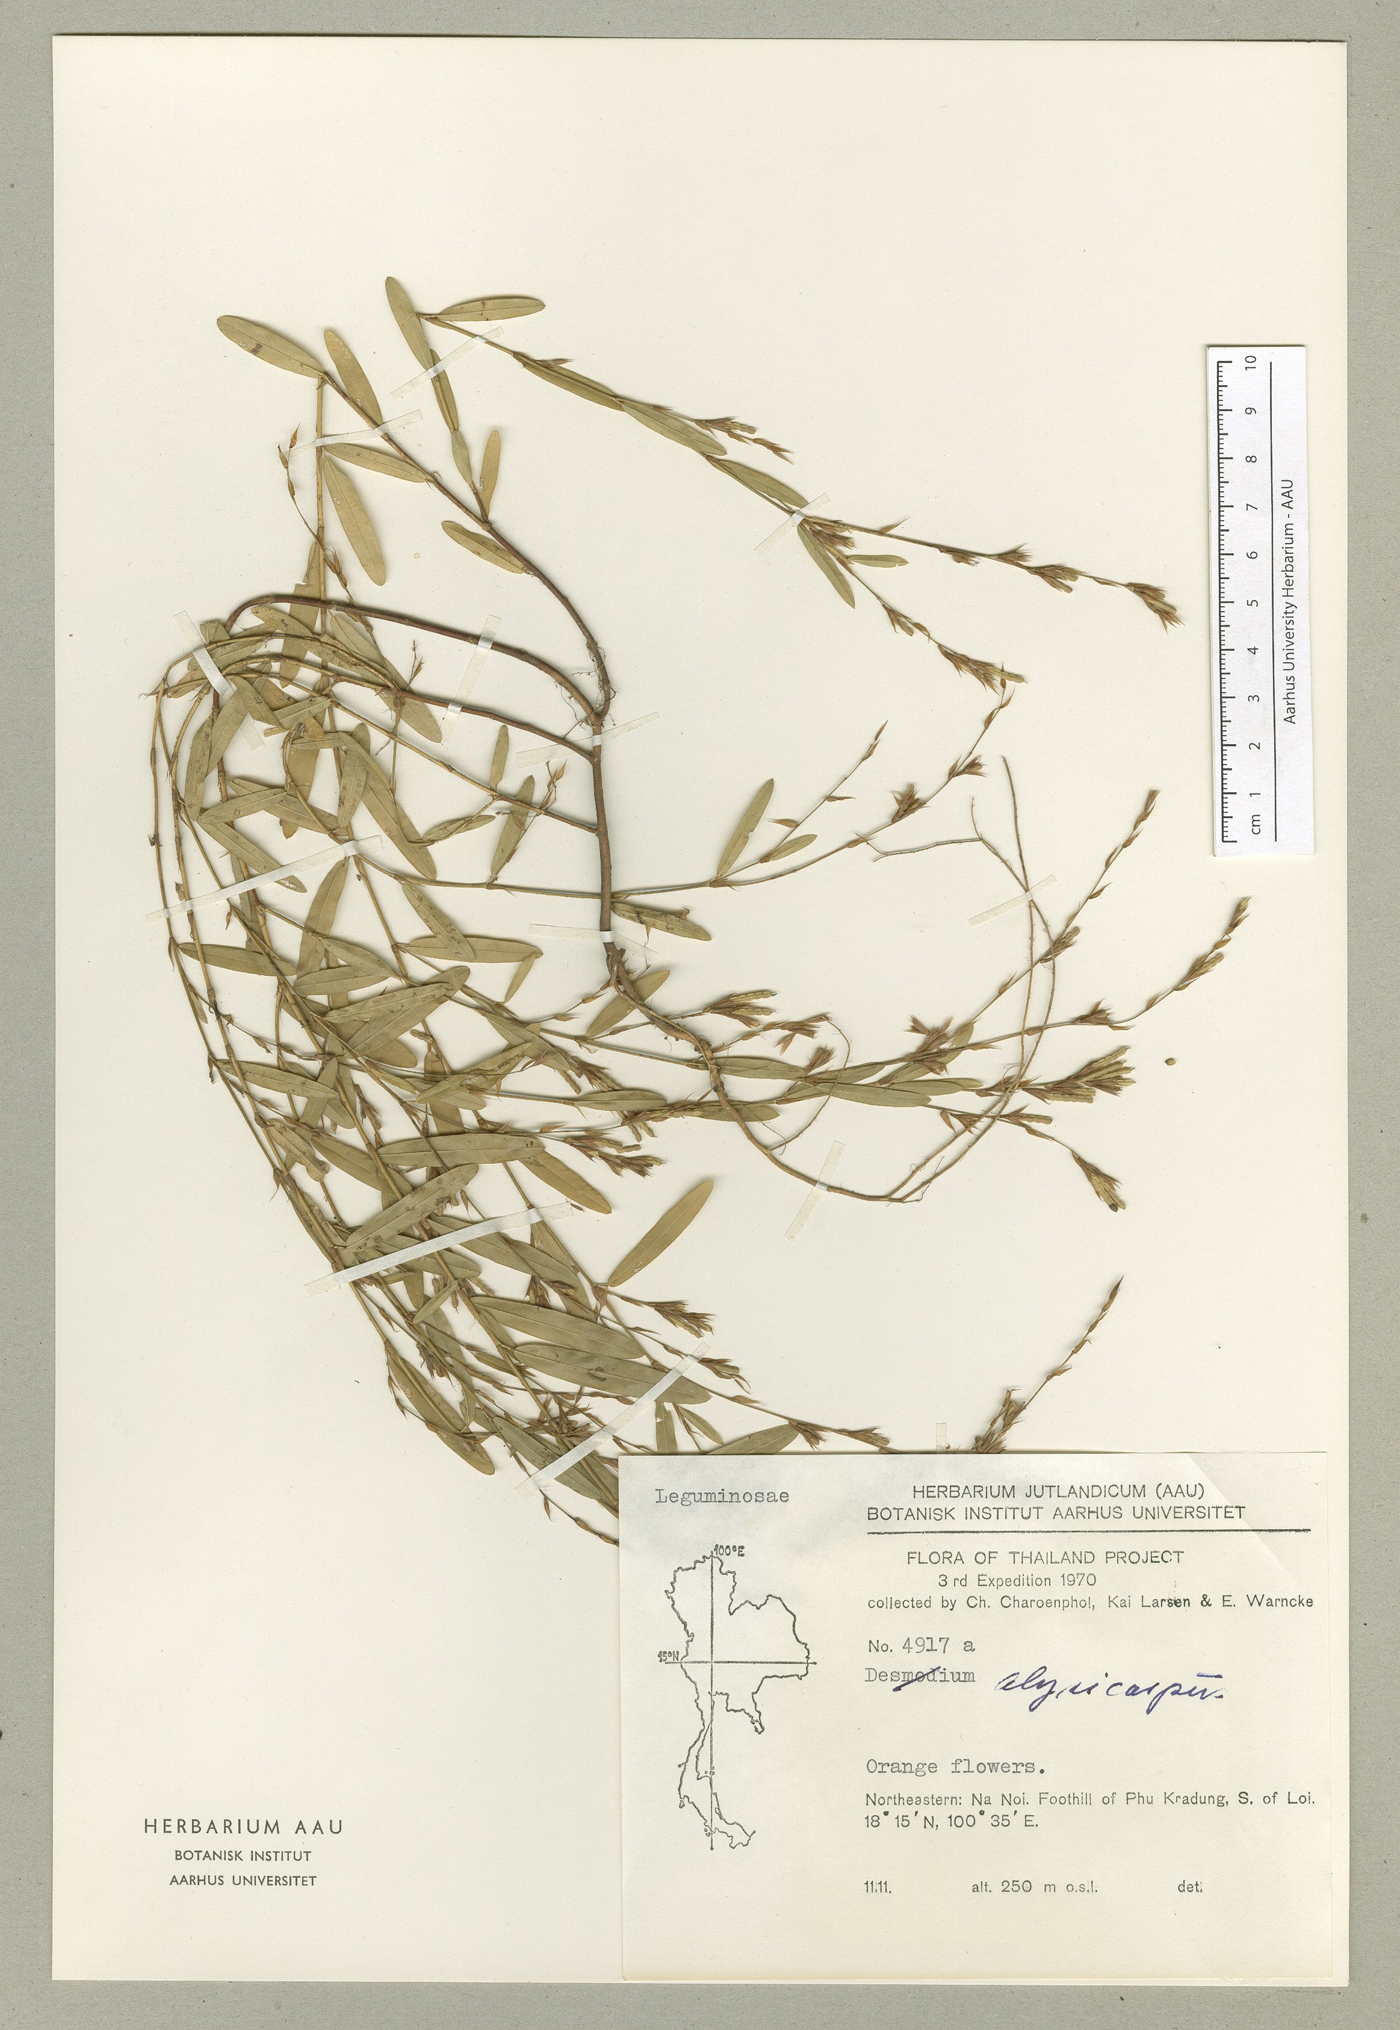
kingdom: Plantae
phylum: Tracheophyta
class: Magnoliopsida
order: Fabales
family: Fabaceae
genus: Alysicarpus
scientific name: Alysicarpus bupleurifolius
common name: Sweet alys
